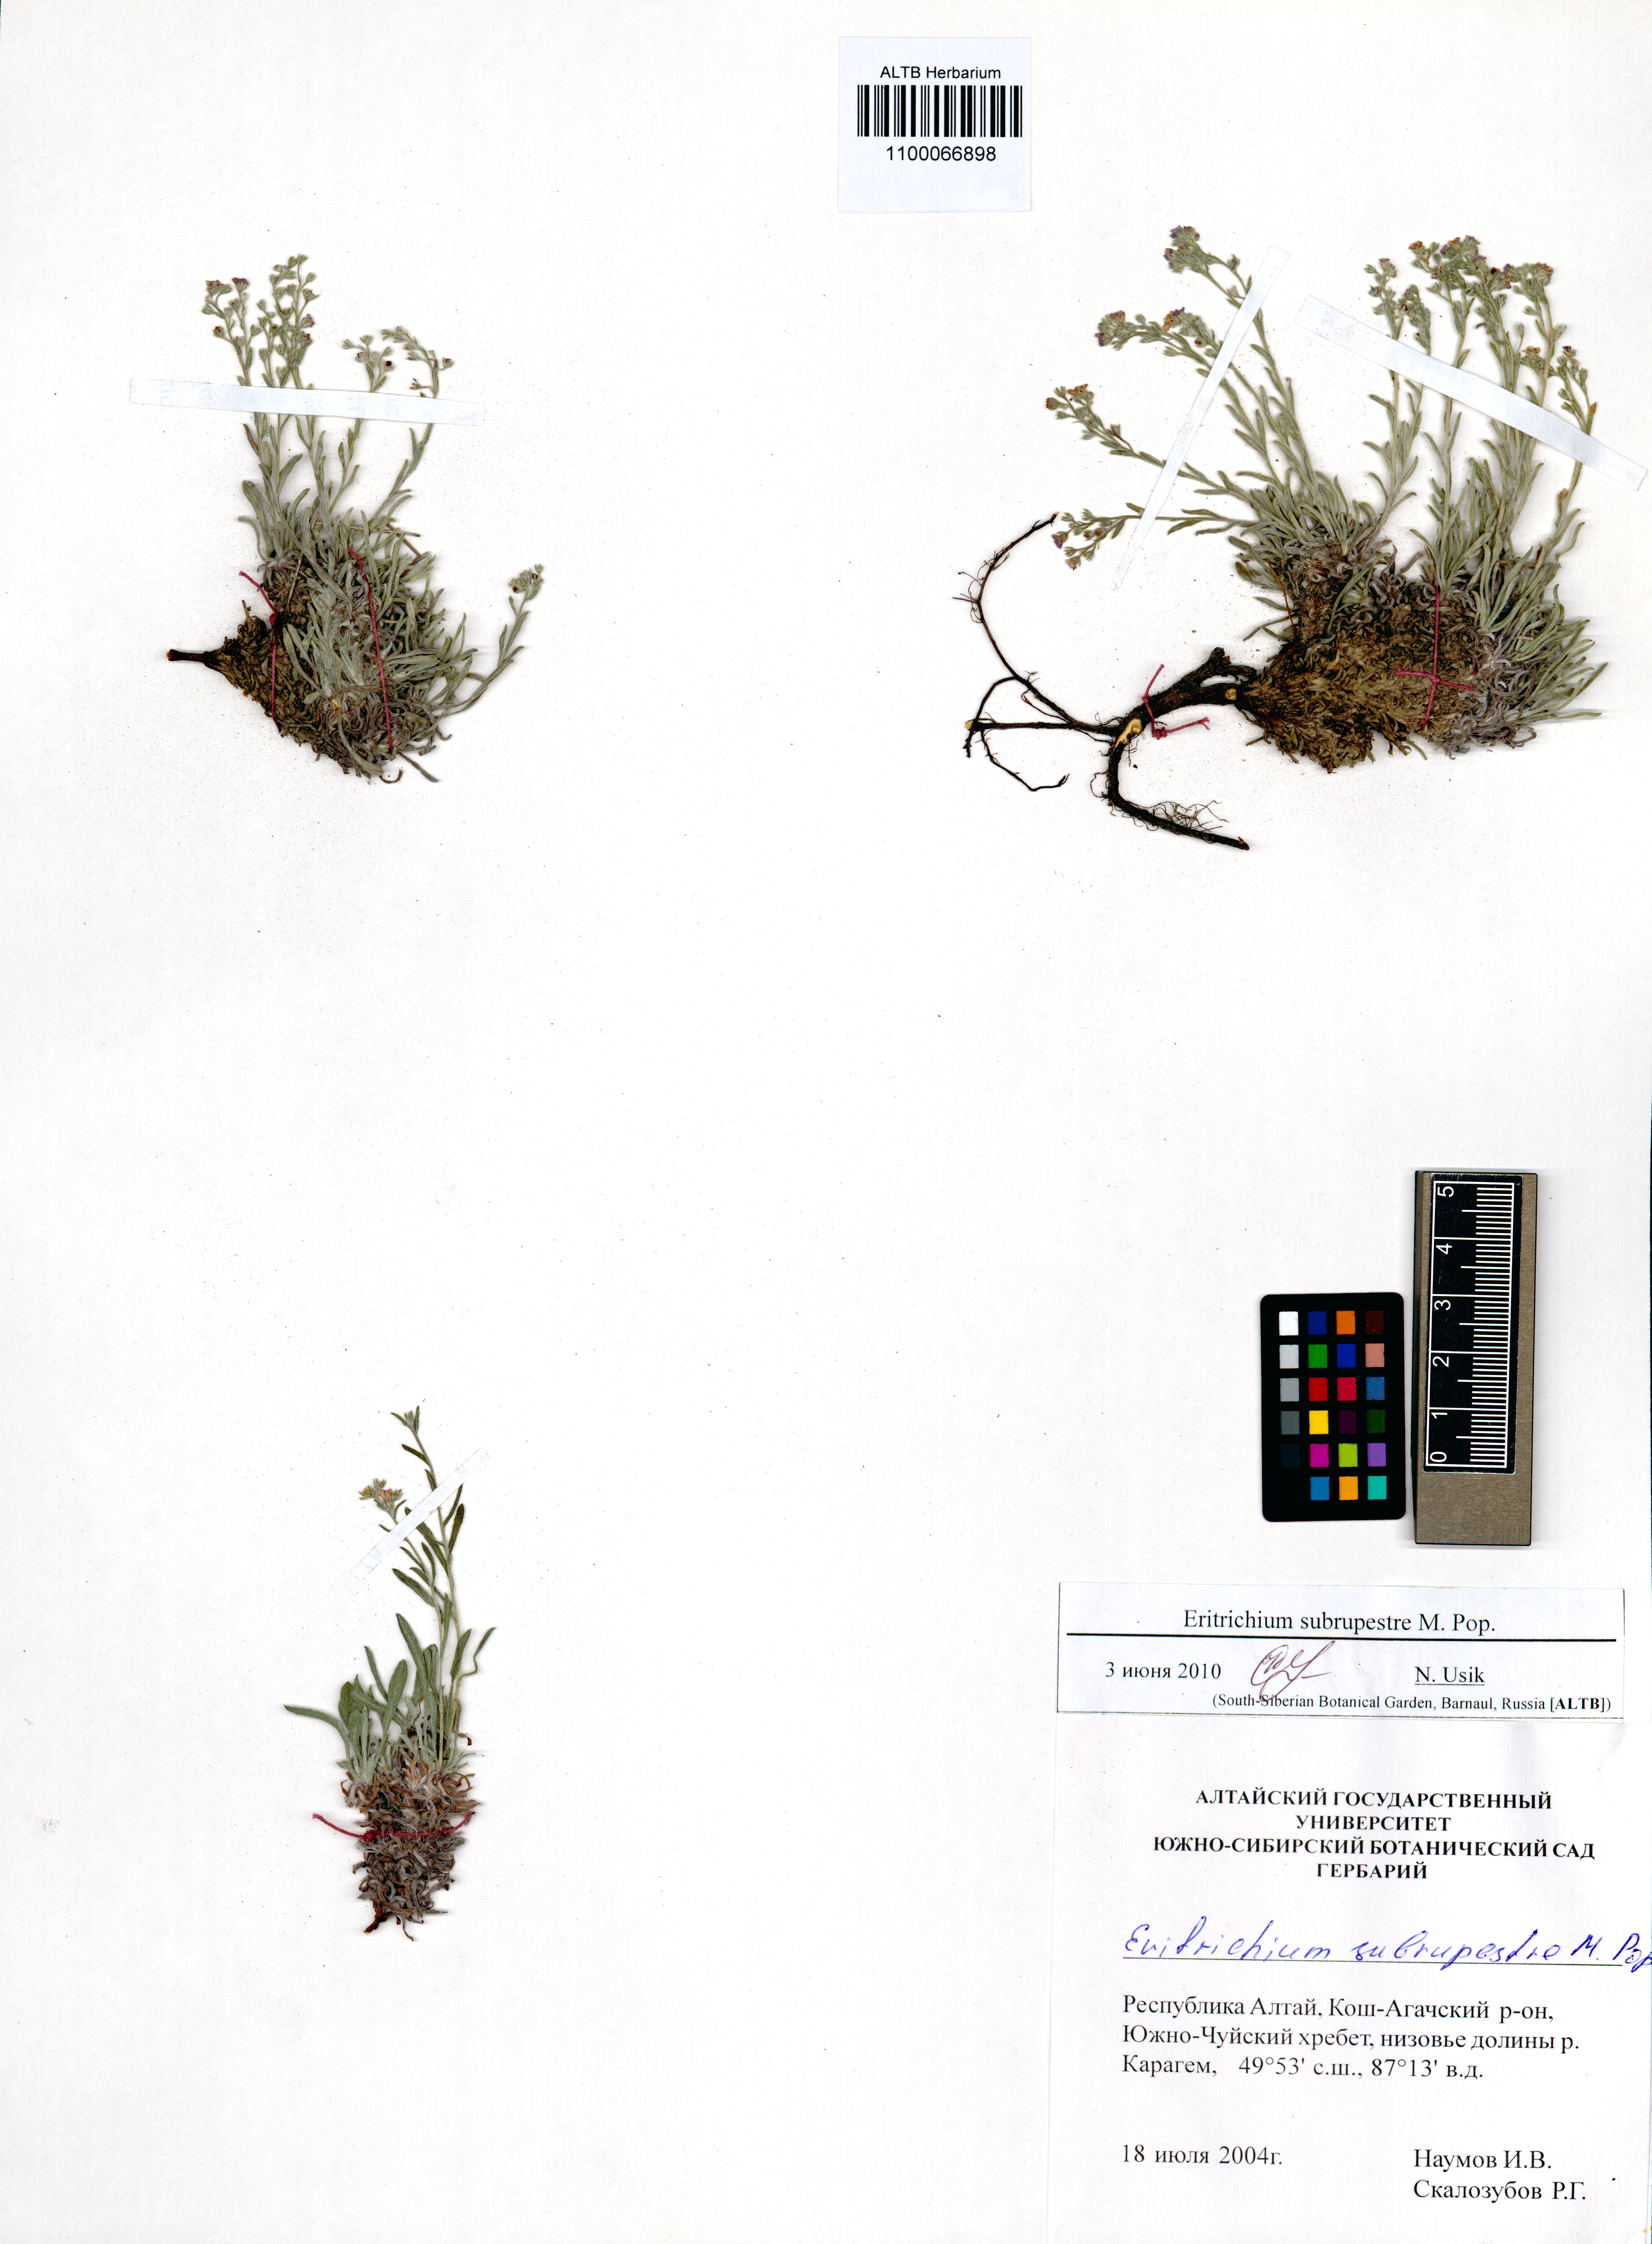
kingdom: Plantae
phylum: Tracheophyta
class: Magnoliopsida
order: Boraginales
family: Boraginaceae
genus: Eritrichium
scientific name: Eritrichium pauciflorum
